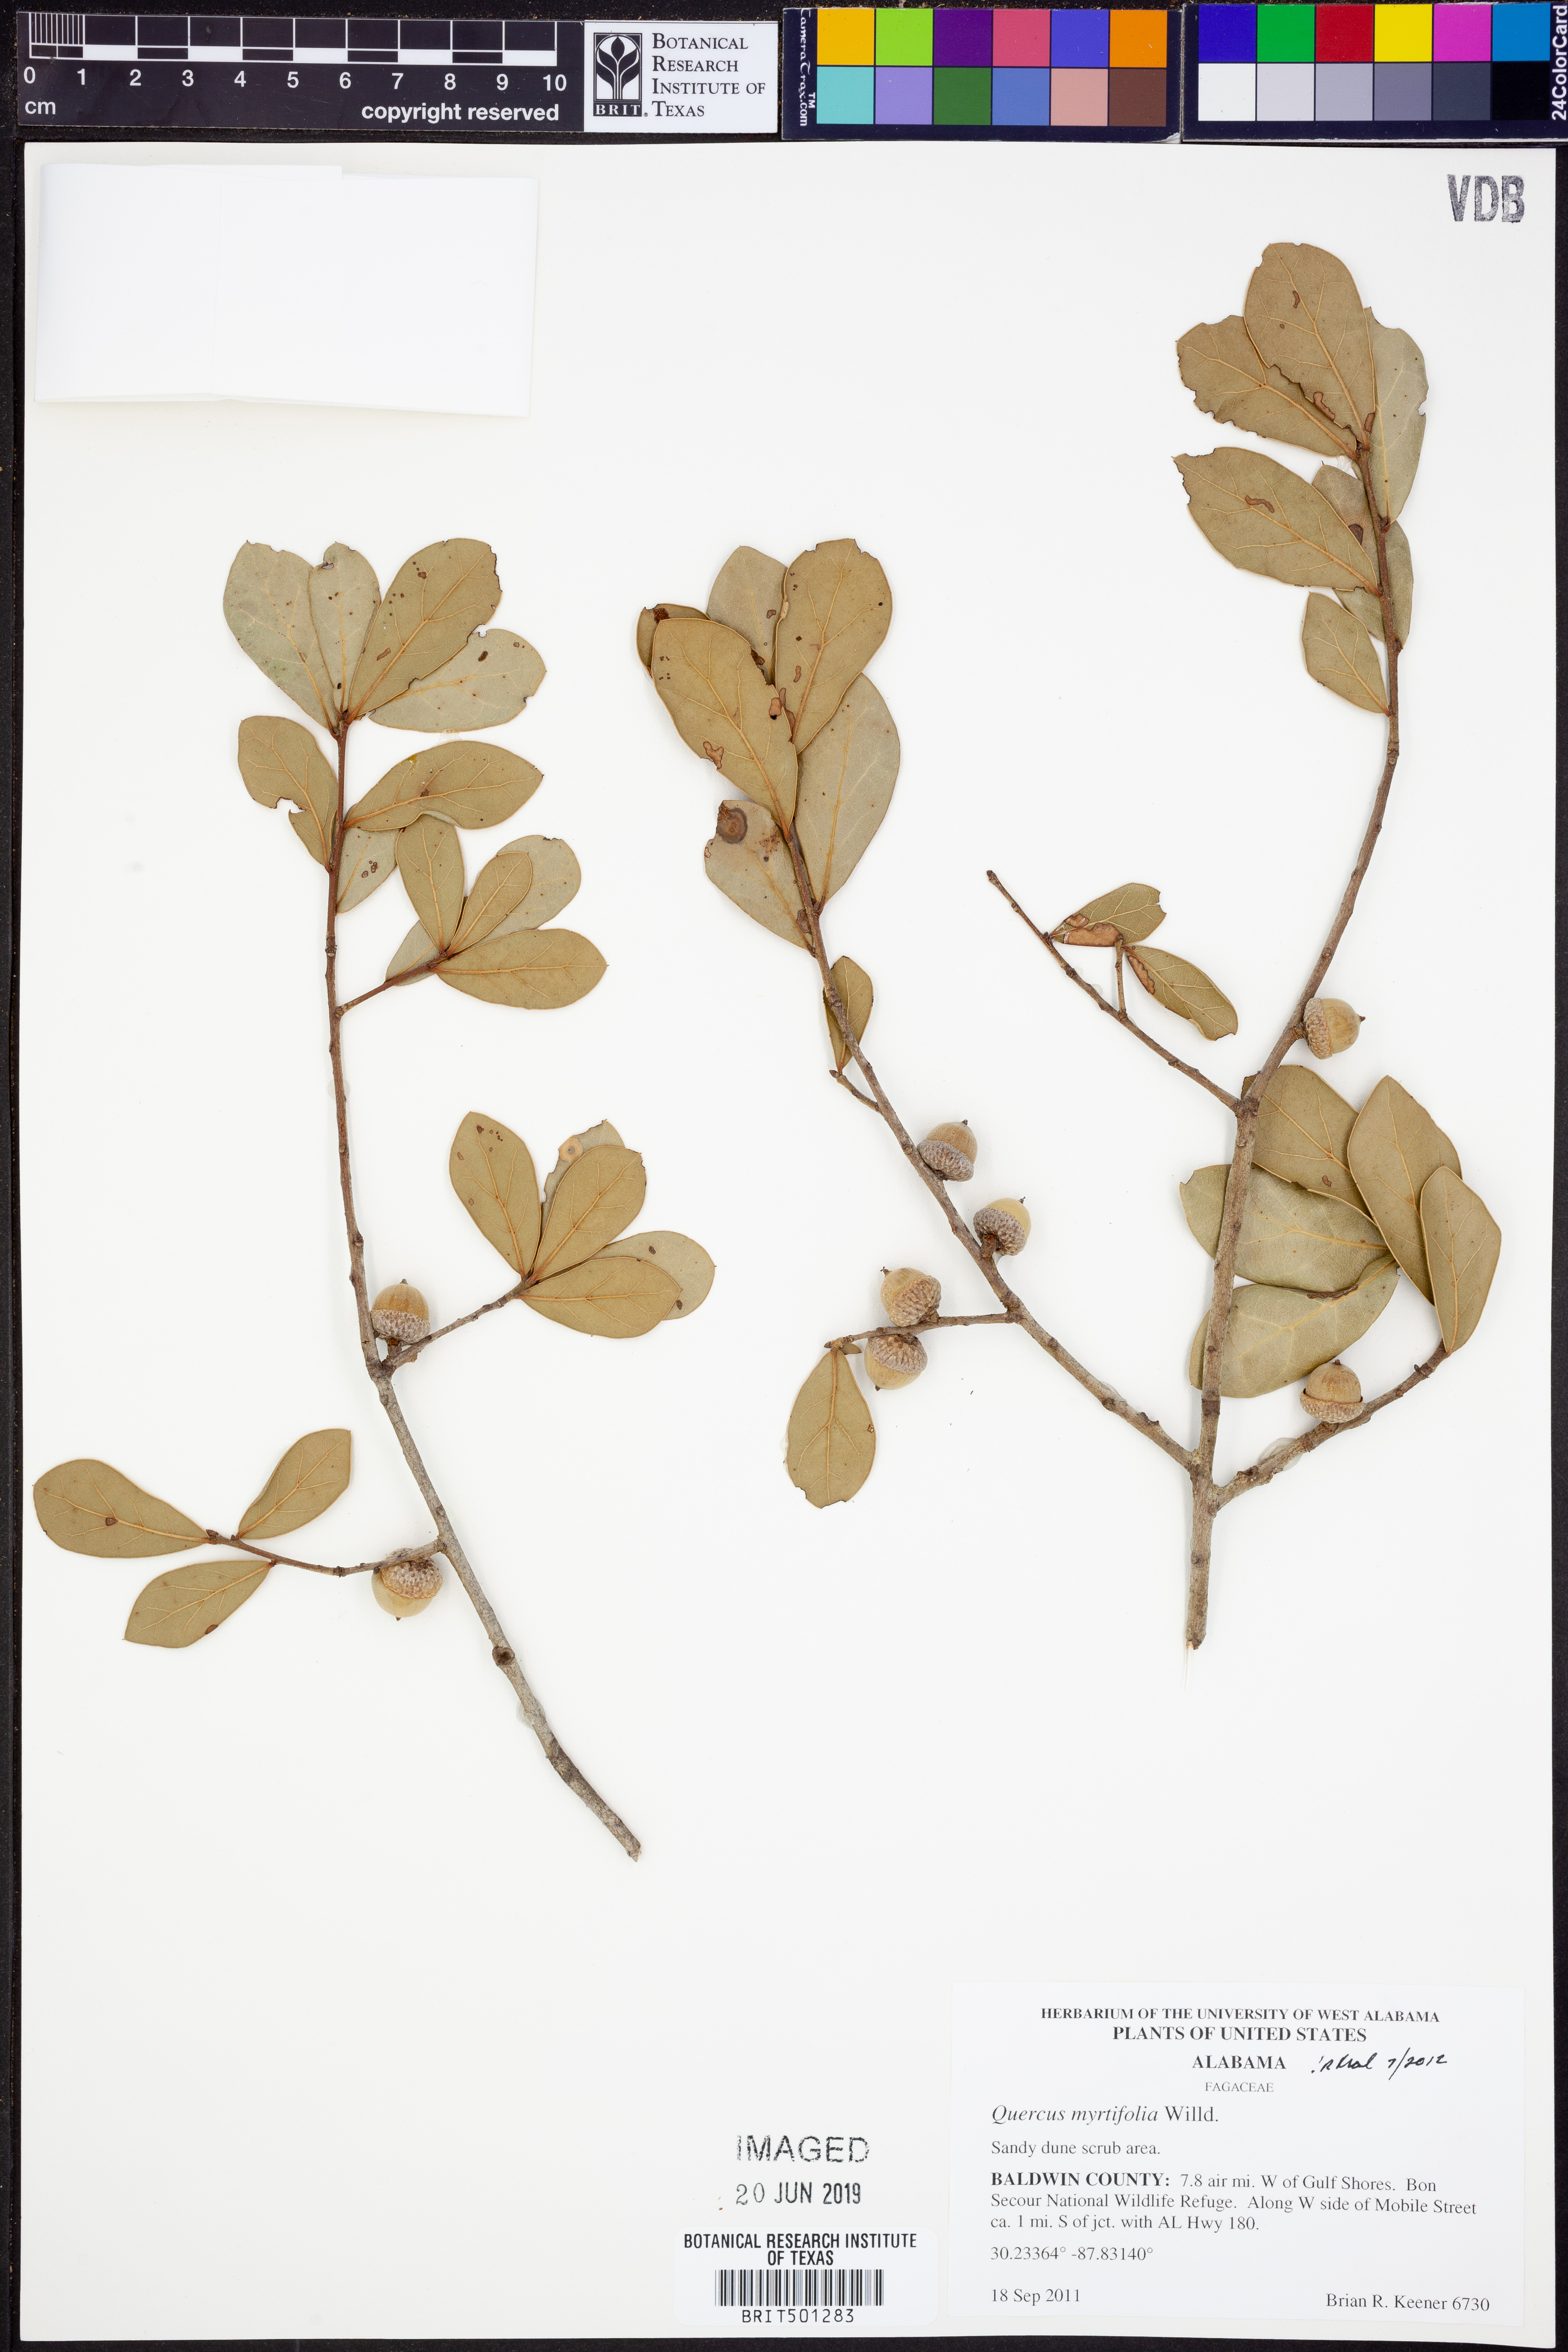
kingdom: Plantae
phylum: Tracheophyta
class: Magnoliopsida
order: Fagales
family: Fagaceae
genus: Quercus
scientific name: Quercus myrtifolia
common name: Myrtle oak
